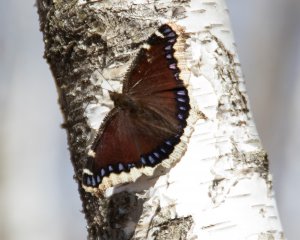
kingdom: Animalia
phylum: Arthropoda
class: Insecta
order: Lepidoptera
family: Nymphalidae
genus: Nymphalis
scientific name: Nymphalis antiopa
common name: Mourning Cloak
